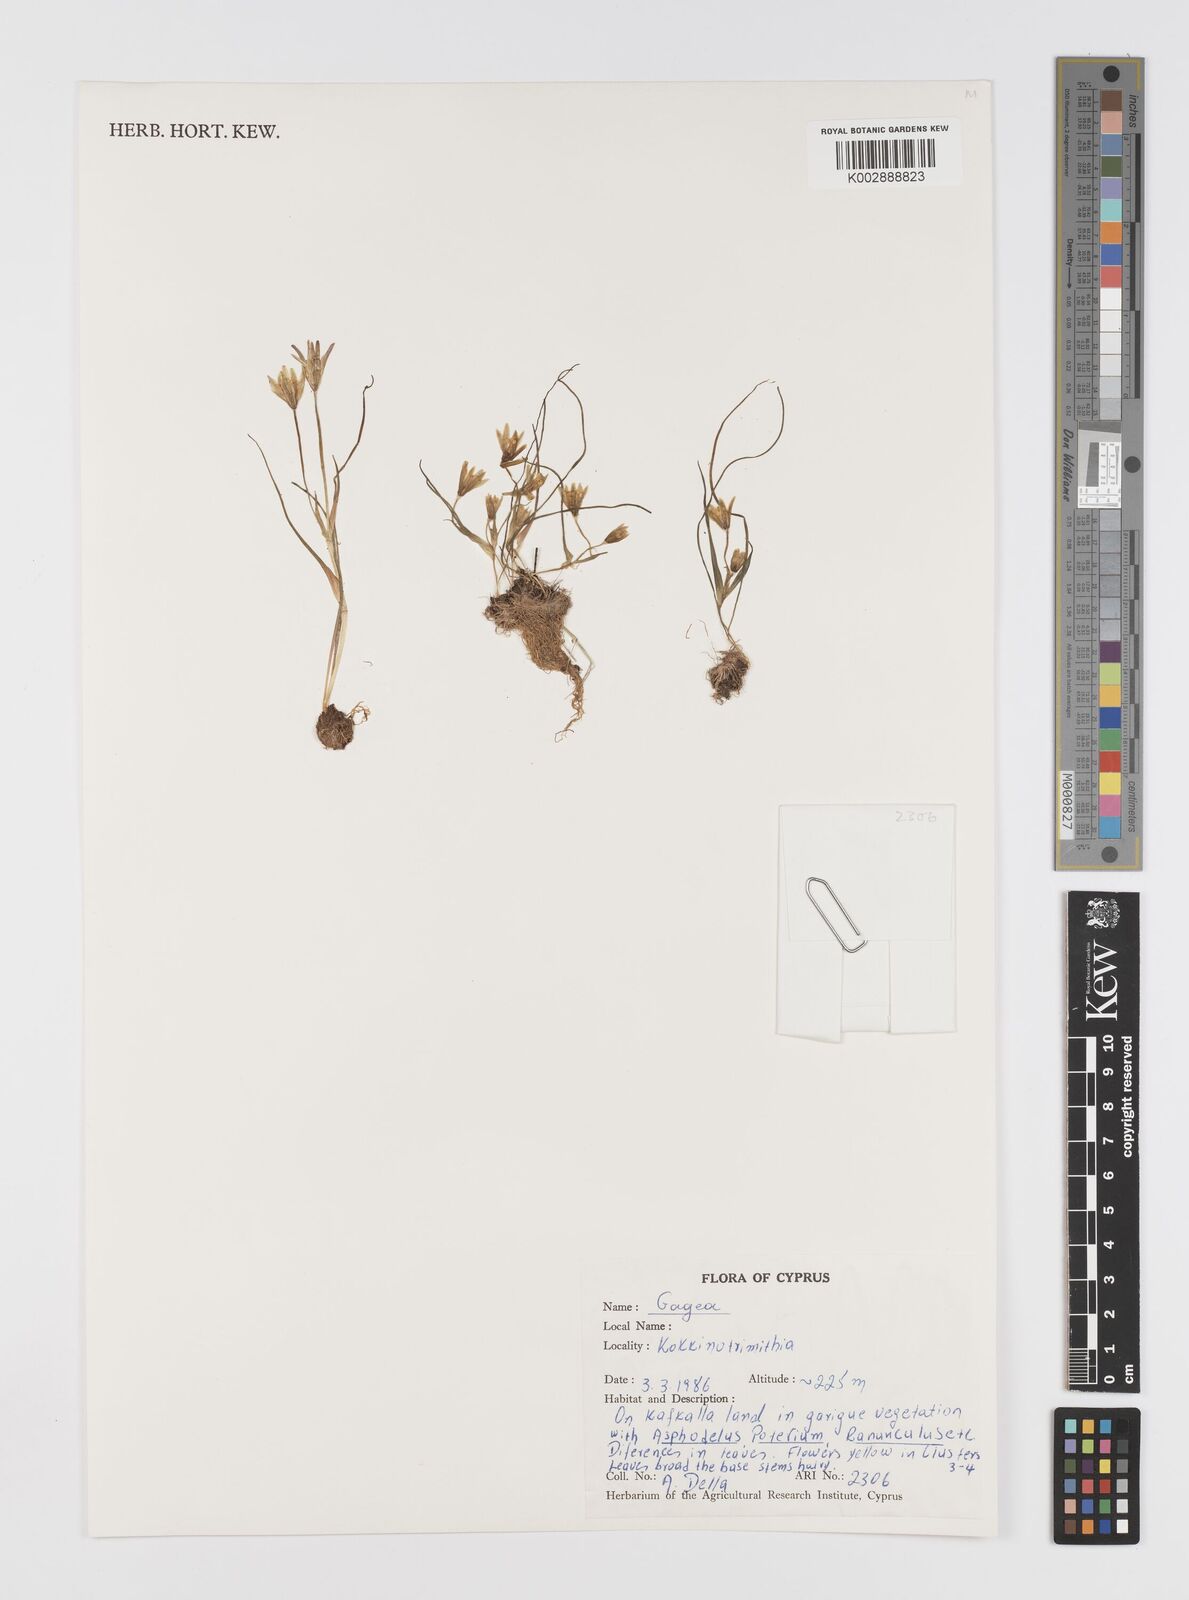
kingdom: Plantae
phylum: Tracheophyta
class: Liliopsida
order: Liliales
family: Liliaceae
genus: Gagea
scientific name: Gagea
